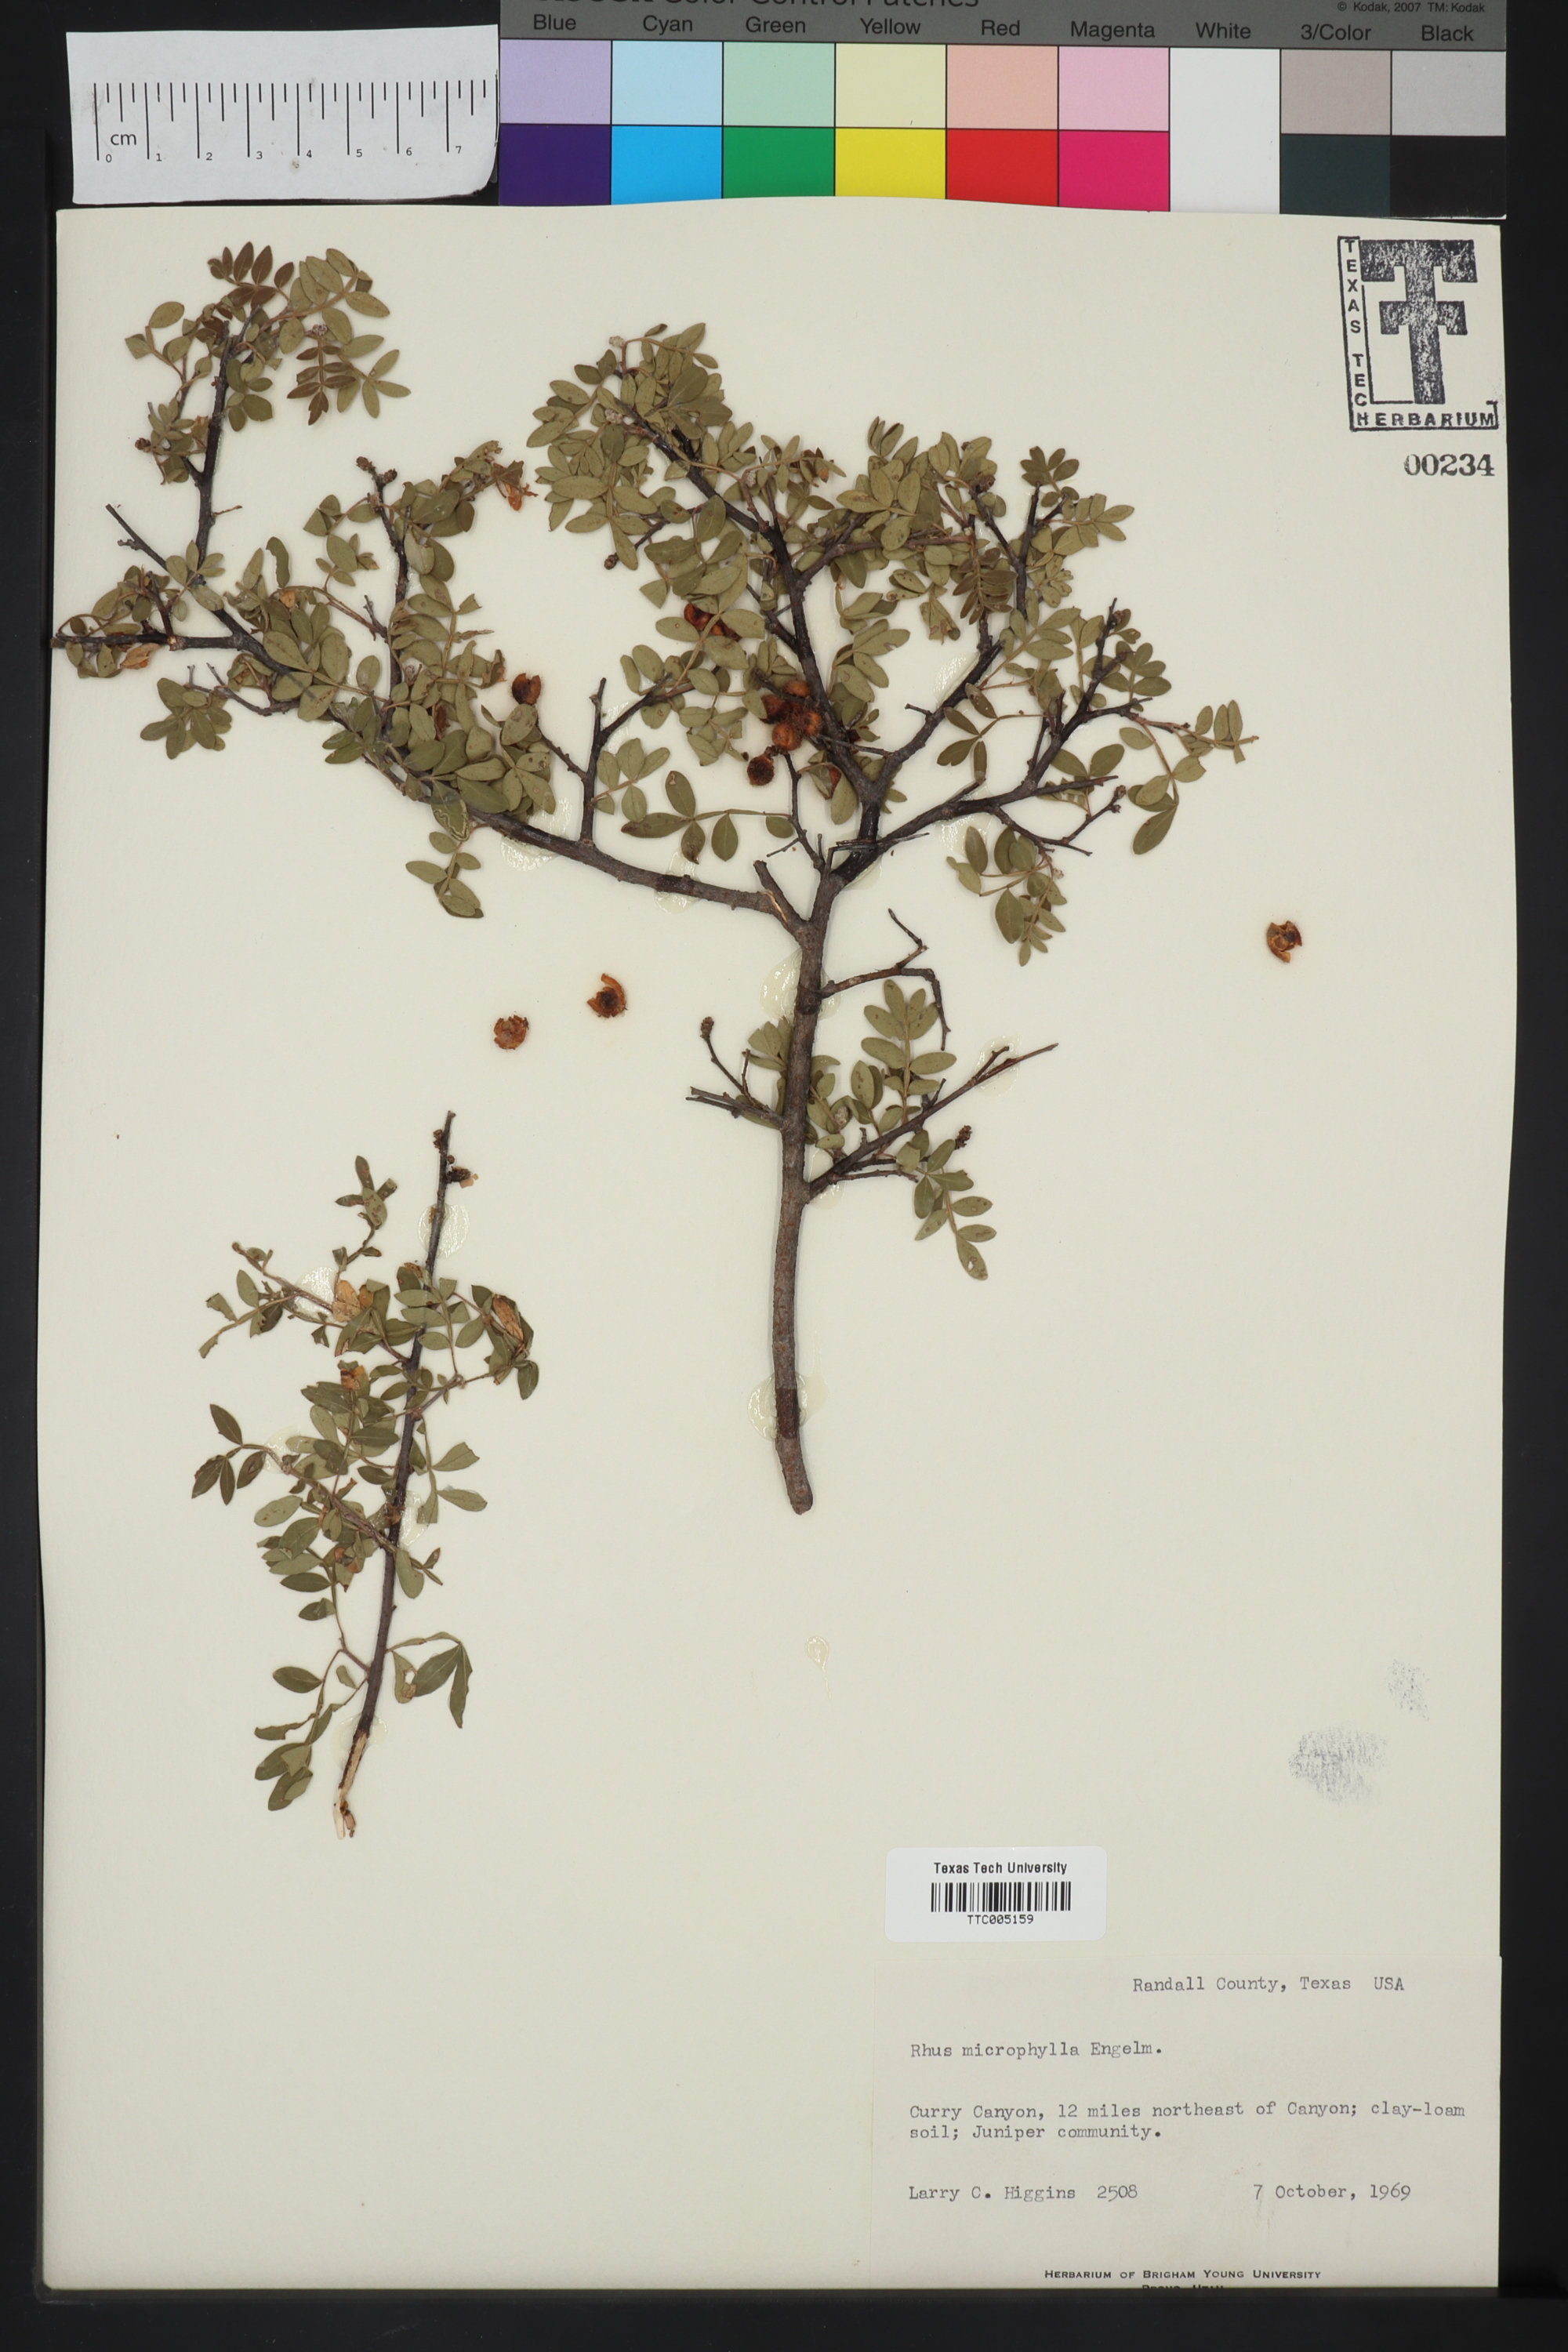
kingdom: Plantae
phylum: Tracheophyta
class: Magnoliopsida
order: Sapindales
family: Anacardiaceae
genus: Rhus
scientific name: Rhus microphylla
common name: Desert sumac
